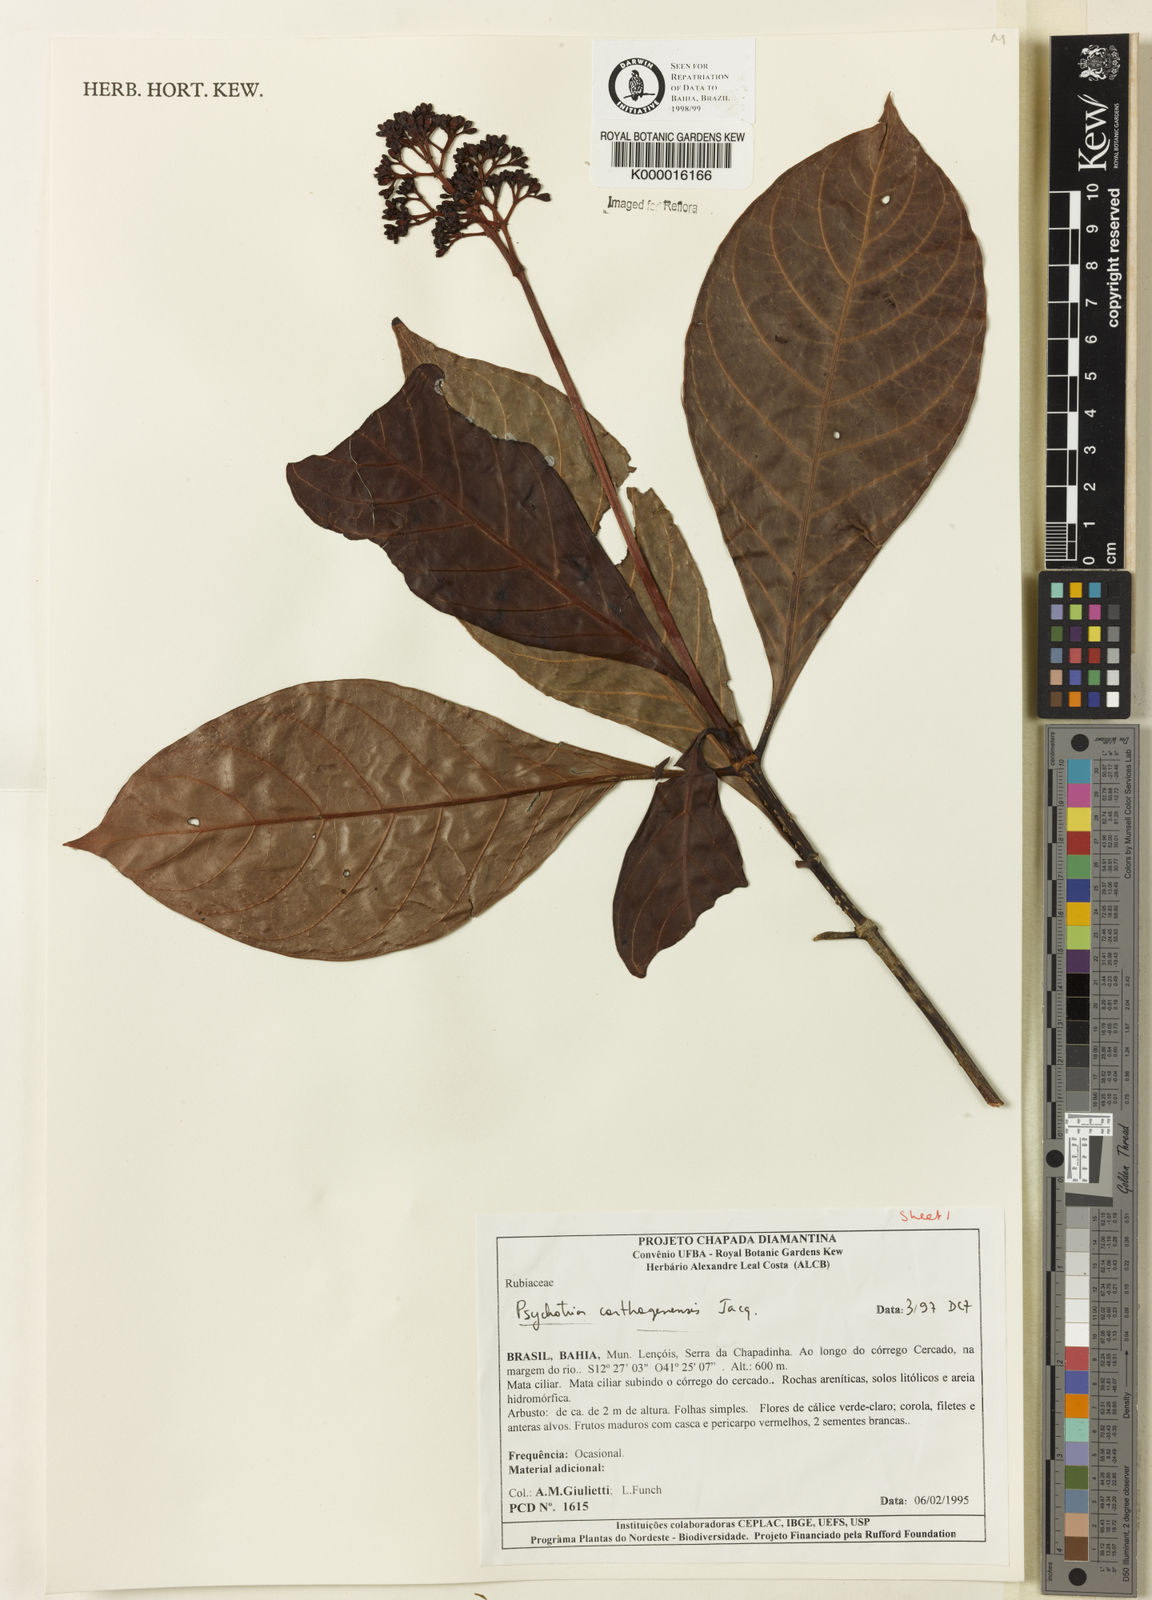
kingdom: Plantae
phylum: Tracheophyta
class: Magnoliopsida
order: Gentianales
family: Rubiaceae
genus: Psychotria
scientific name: Psychotria carthagenensis
